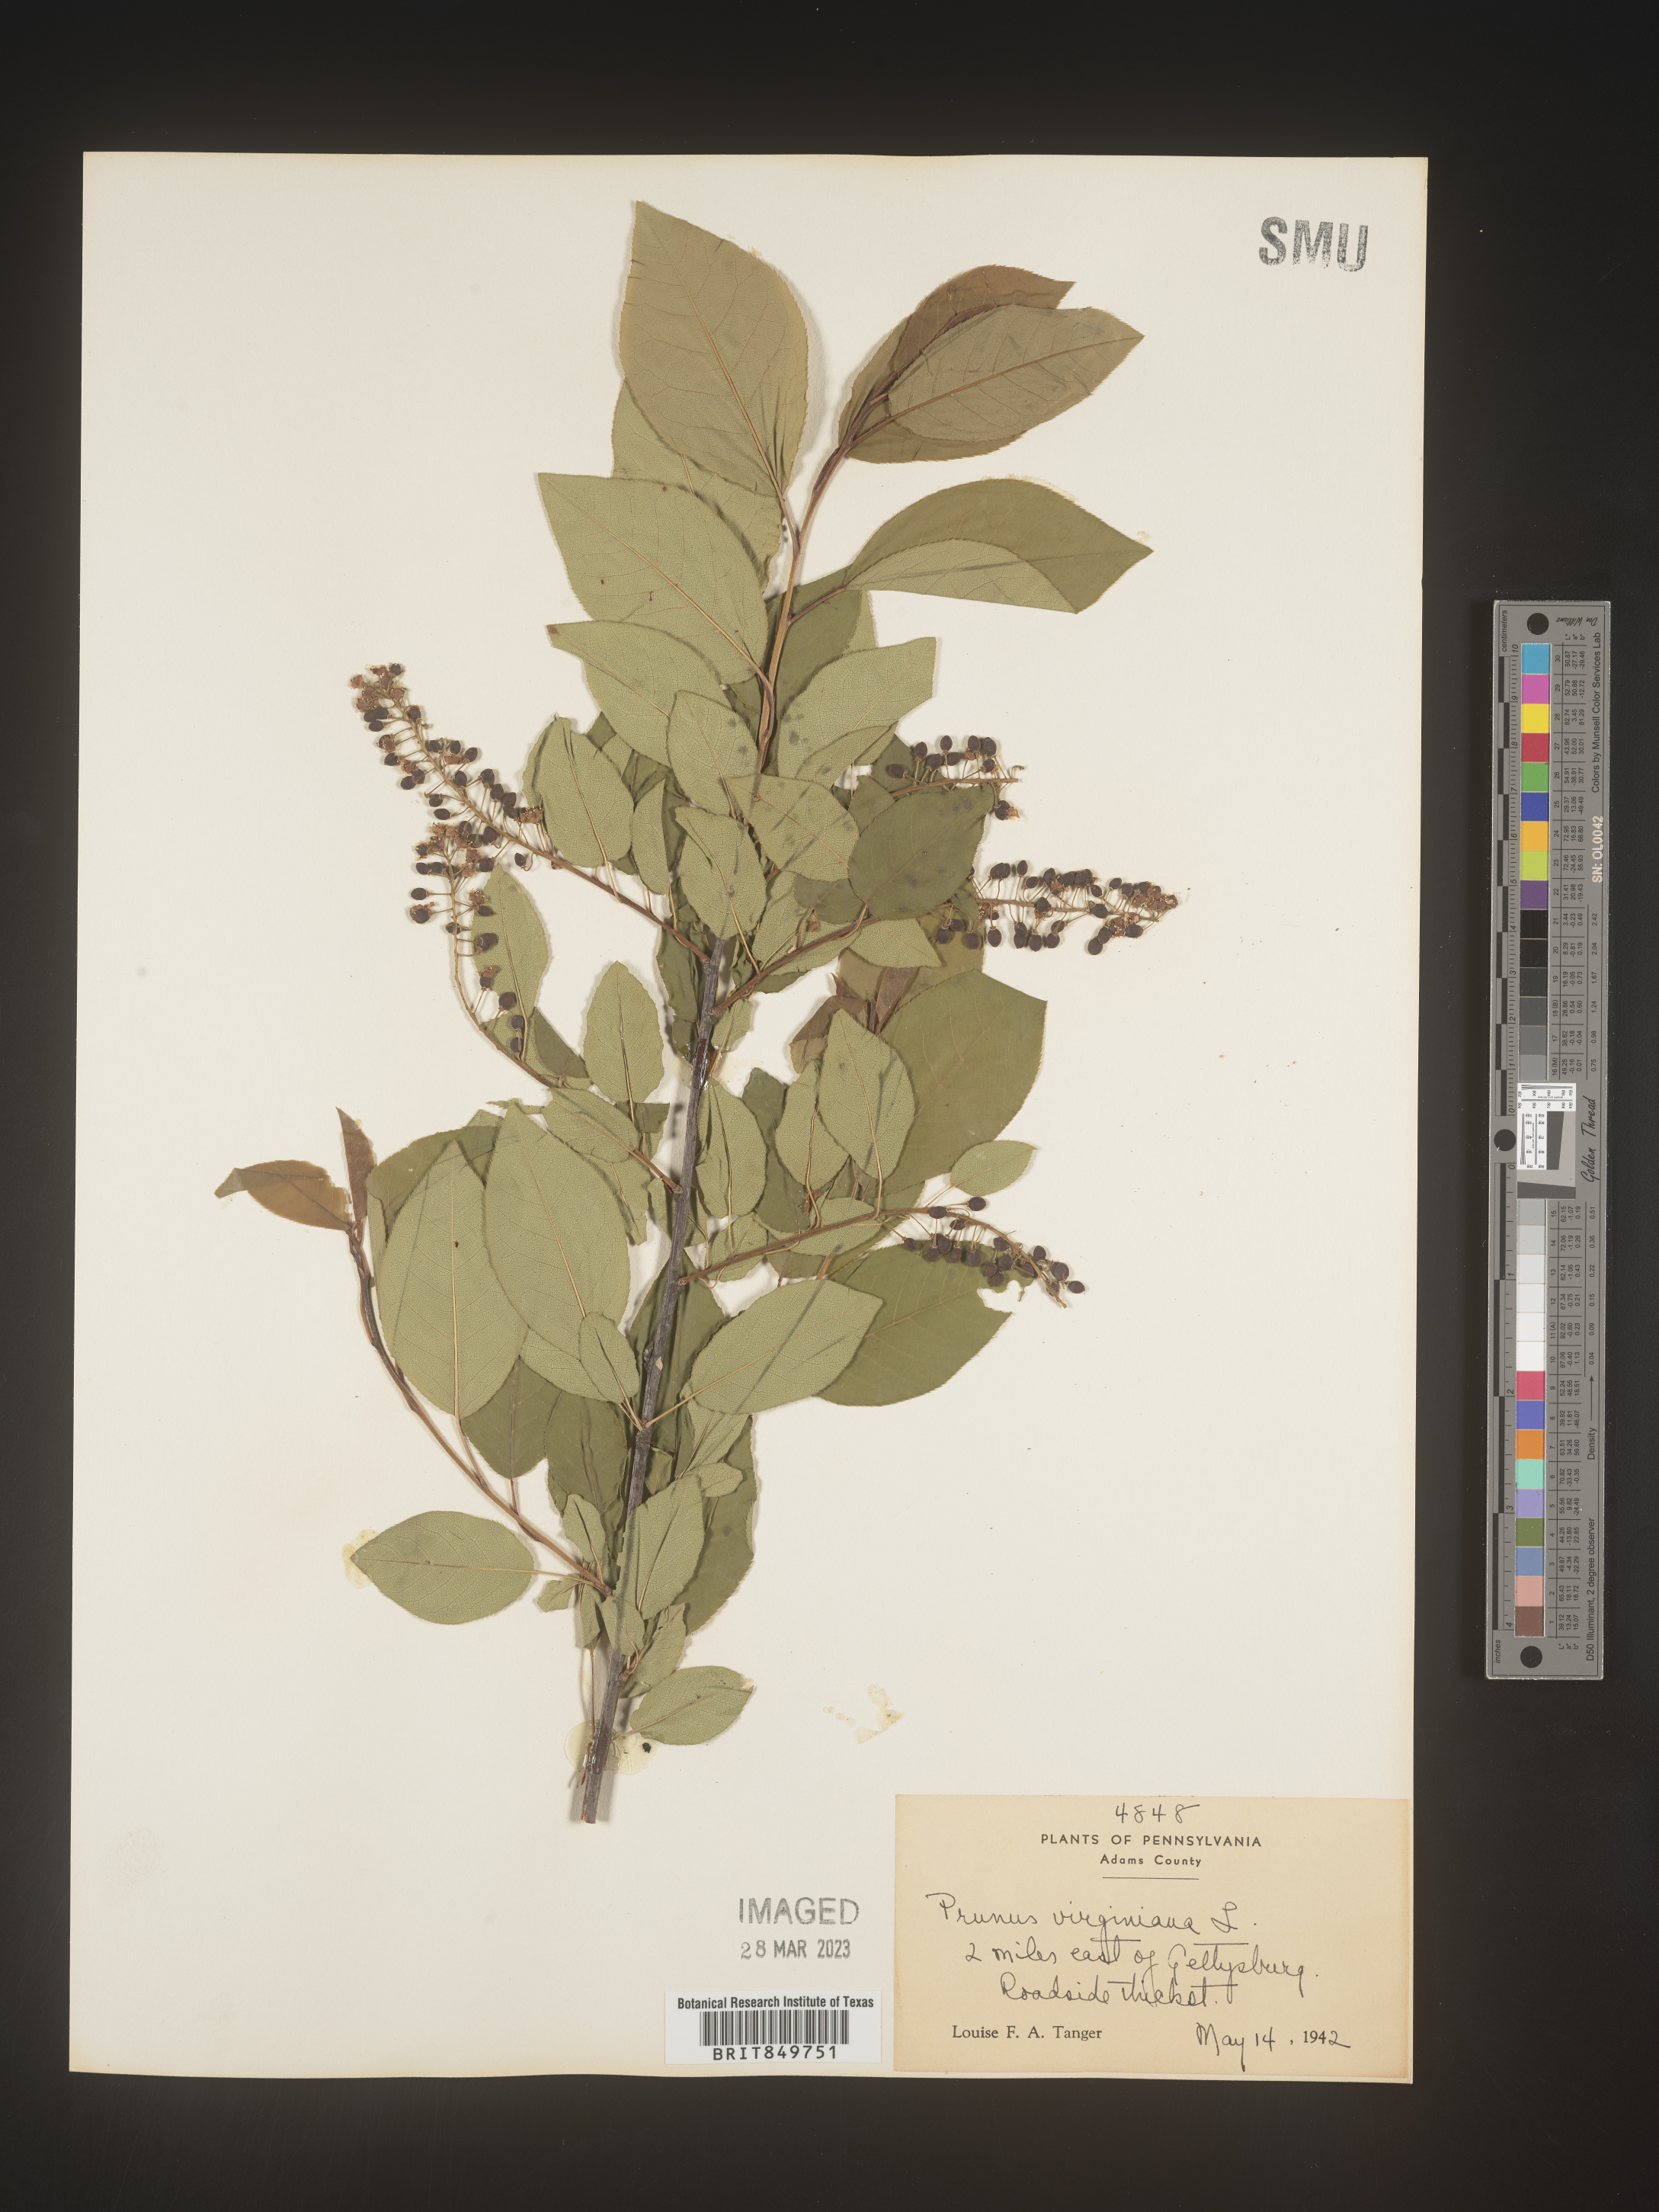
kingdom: Plantae
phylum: Tracheophyta
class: Magnoliopsida
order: Rosales
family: Rosaceae
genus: Prunus
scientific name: Prunus virginiana
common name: Chokecherry
